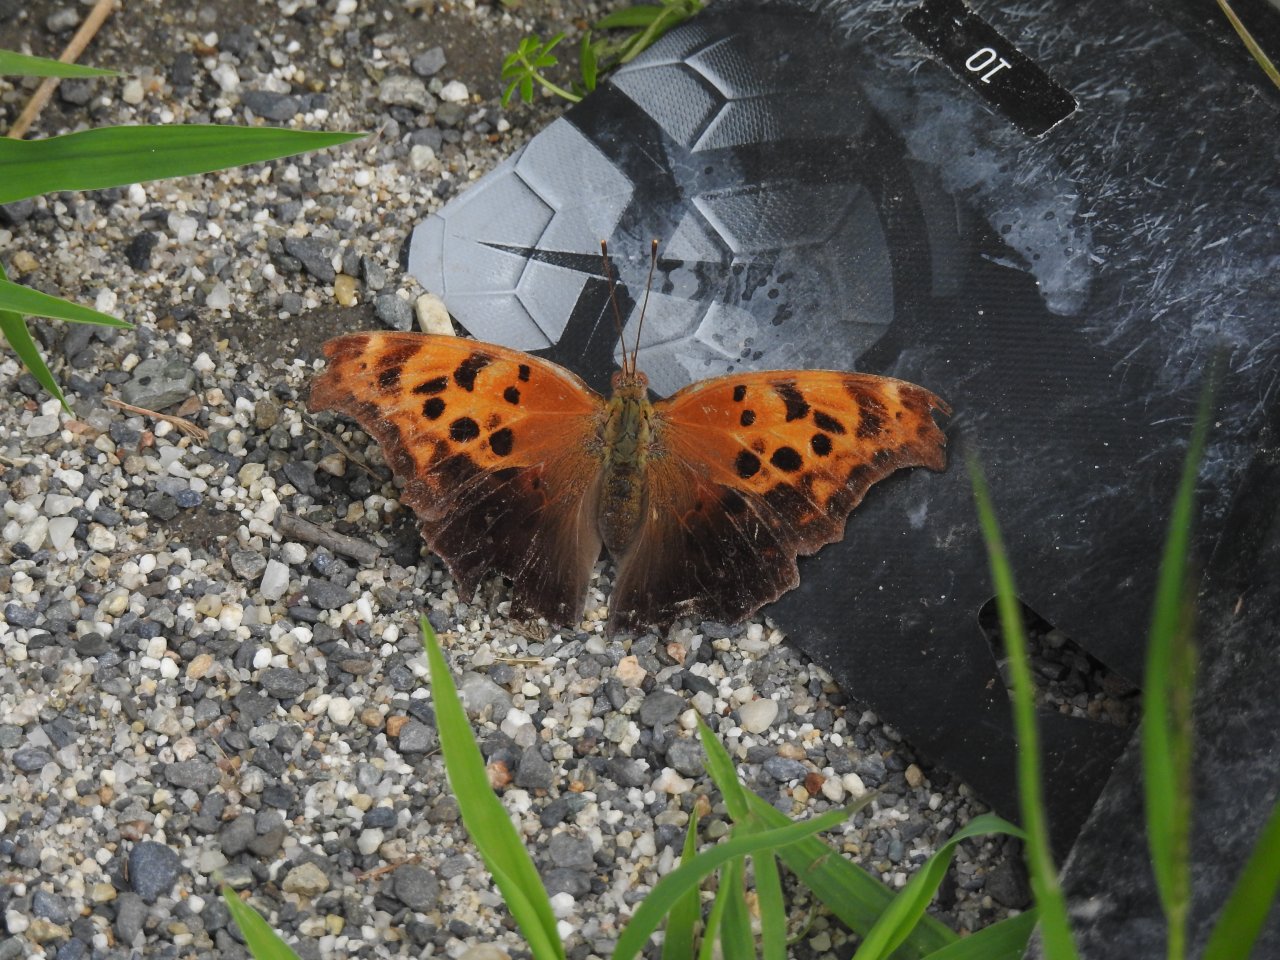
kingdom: Animalia
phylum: Arthropoda
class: Insecta
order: Lepidoptera
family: Nymphalidae
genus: Polygonia
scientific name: Polygonia interrogationis
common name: Question Mark
